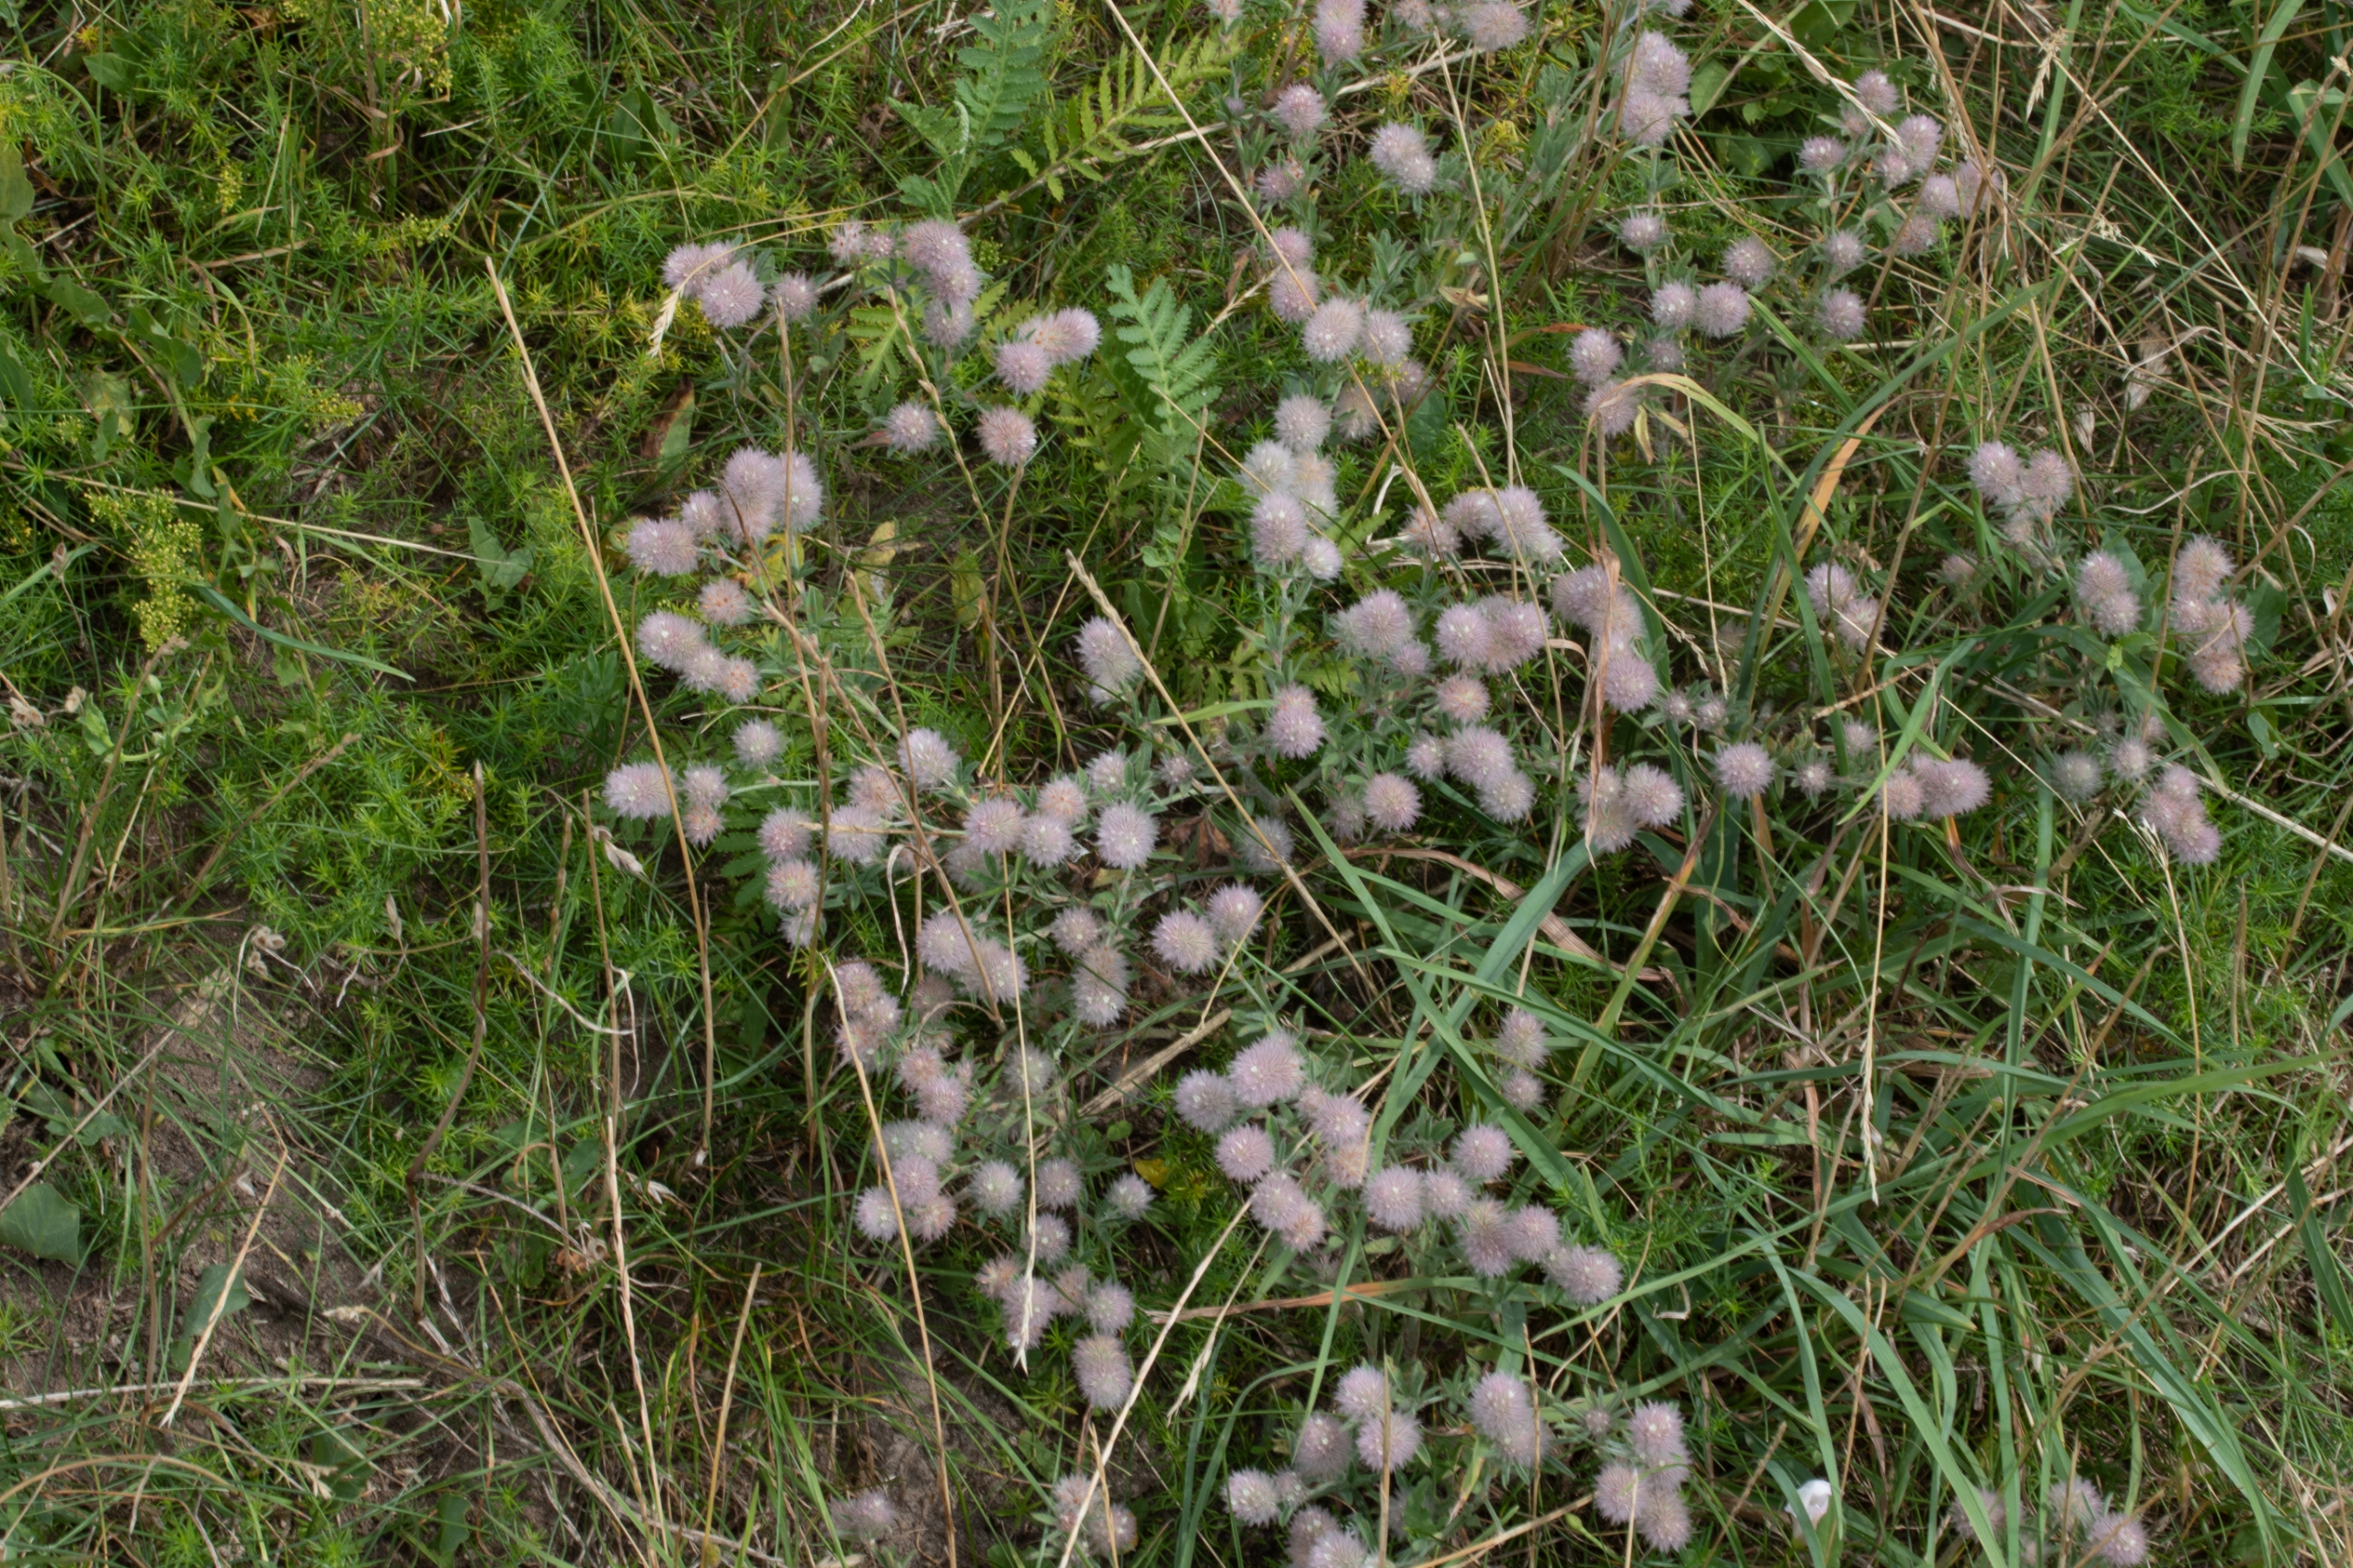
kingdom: Plantae
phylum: Tracheophyta
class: Magnoliopsida
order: Fabales
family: Fabaceae
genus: Trifolium
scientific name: Trifolium arvense
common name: Hare-kløver
